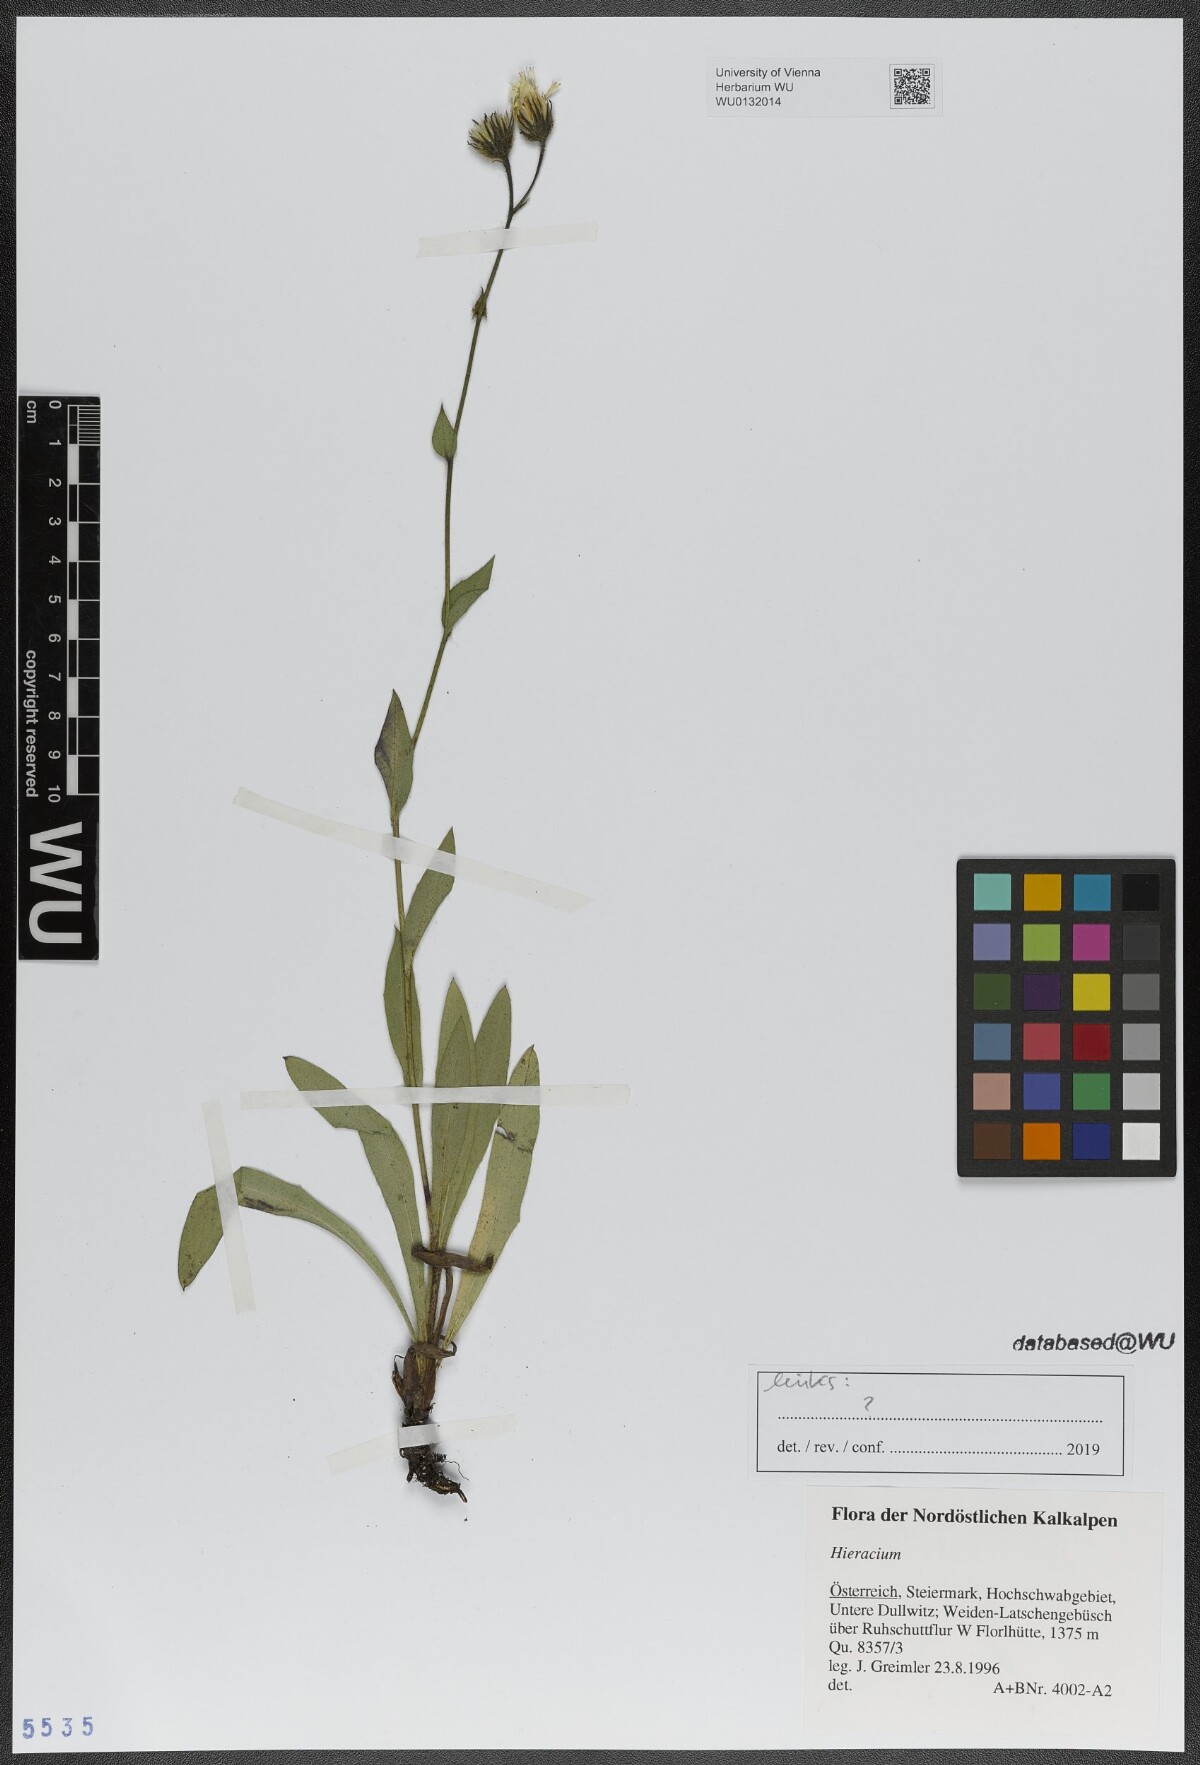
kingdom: Plantae
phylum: Tracheophyta
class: Magnoliopsida
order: Asterales
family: Asteraceae
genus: Hieracium
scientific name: Hieracium
